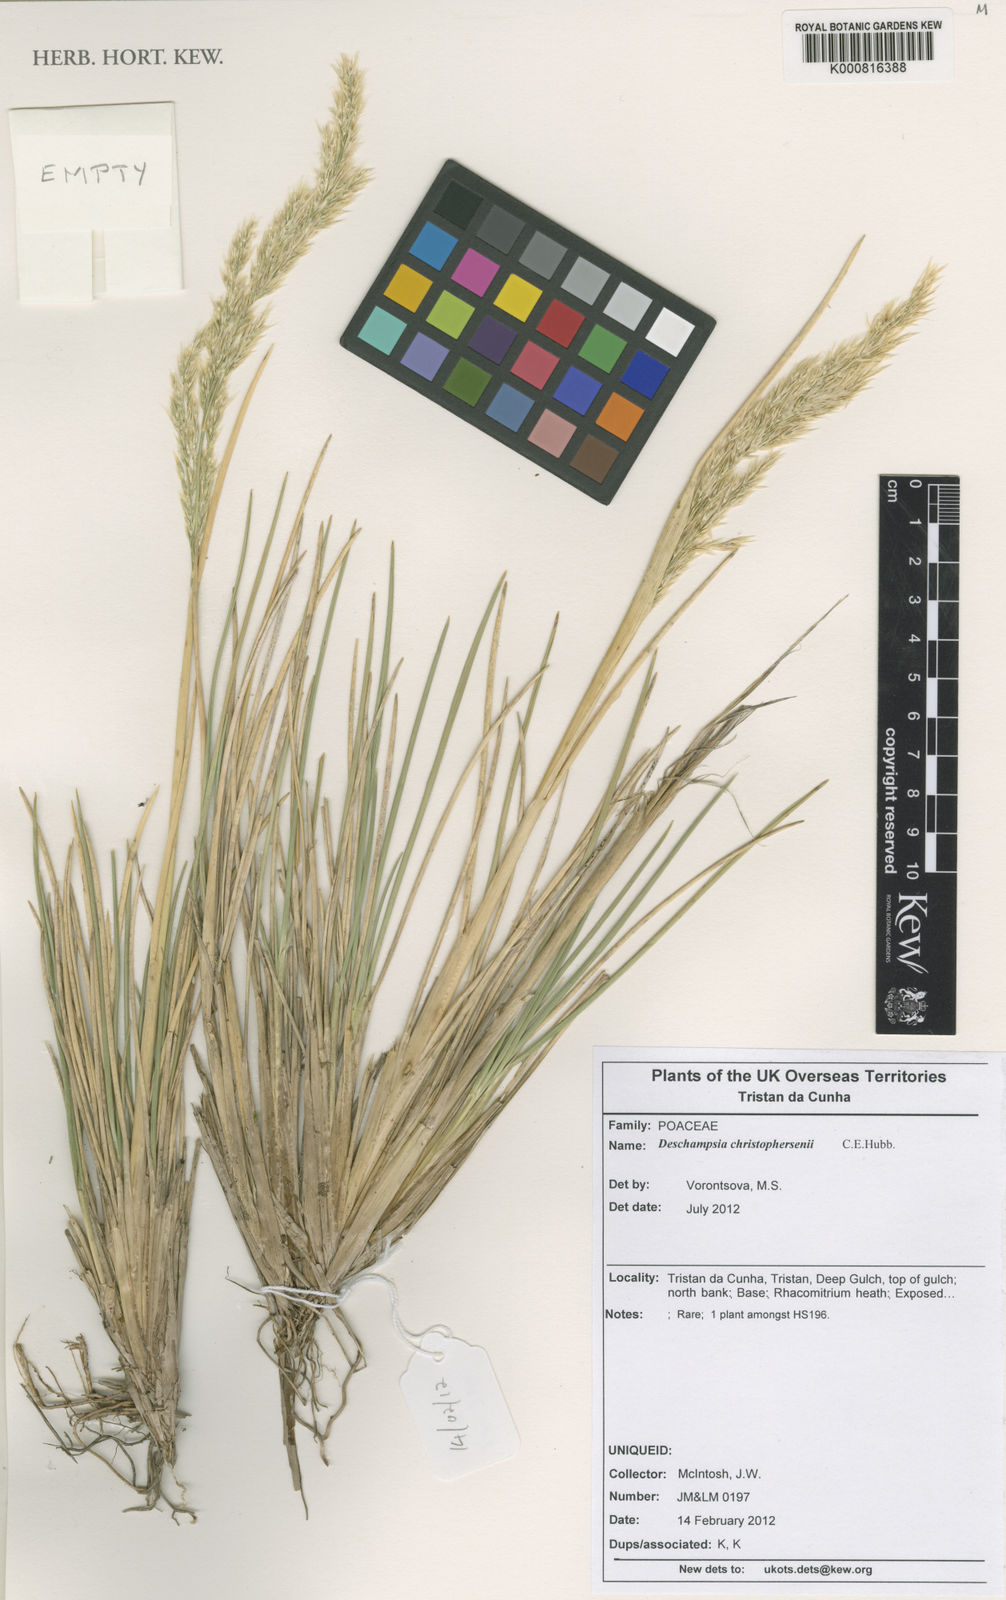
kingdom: Plantae
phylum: Tracheophyta
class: Liliopsida
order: Poales
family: Poaceae
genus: Deschampsia
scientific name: Deschampsia christophersenii
